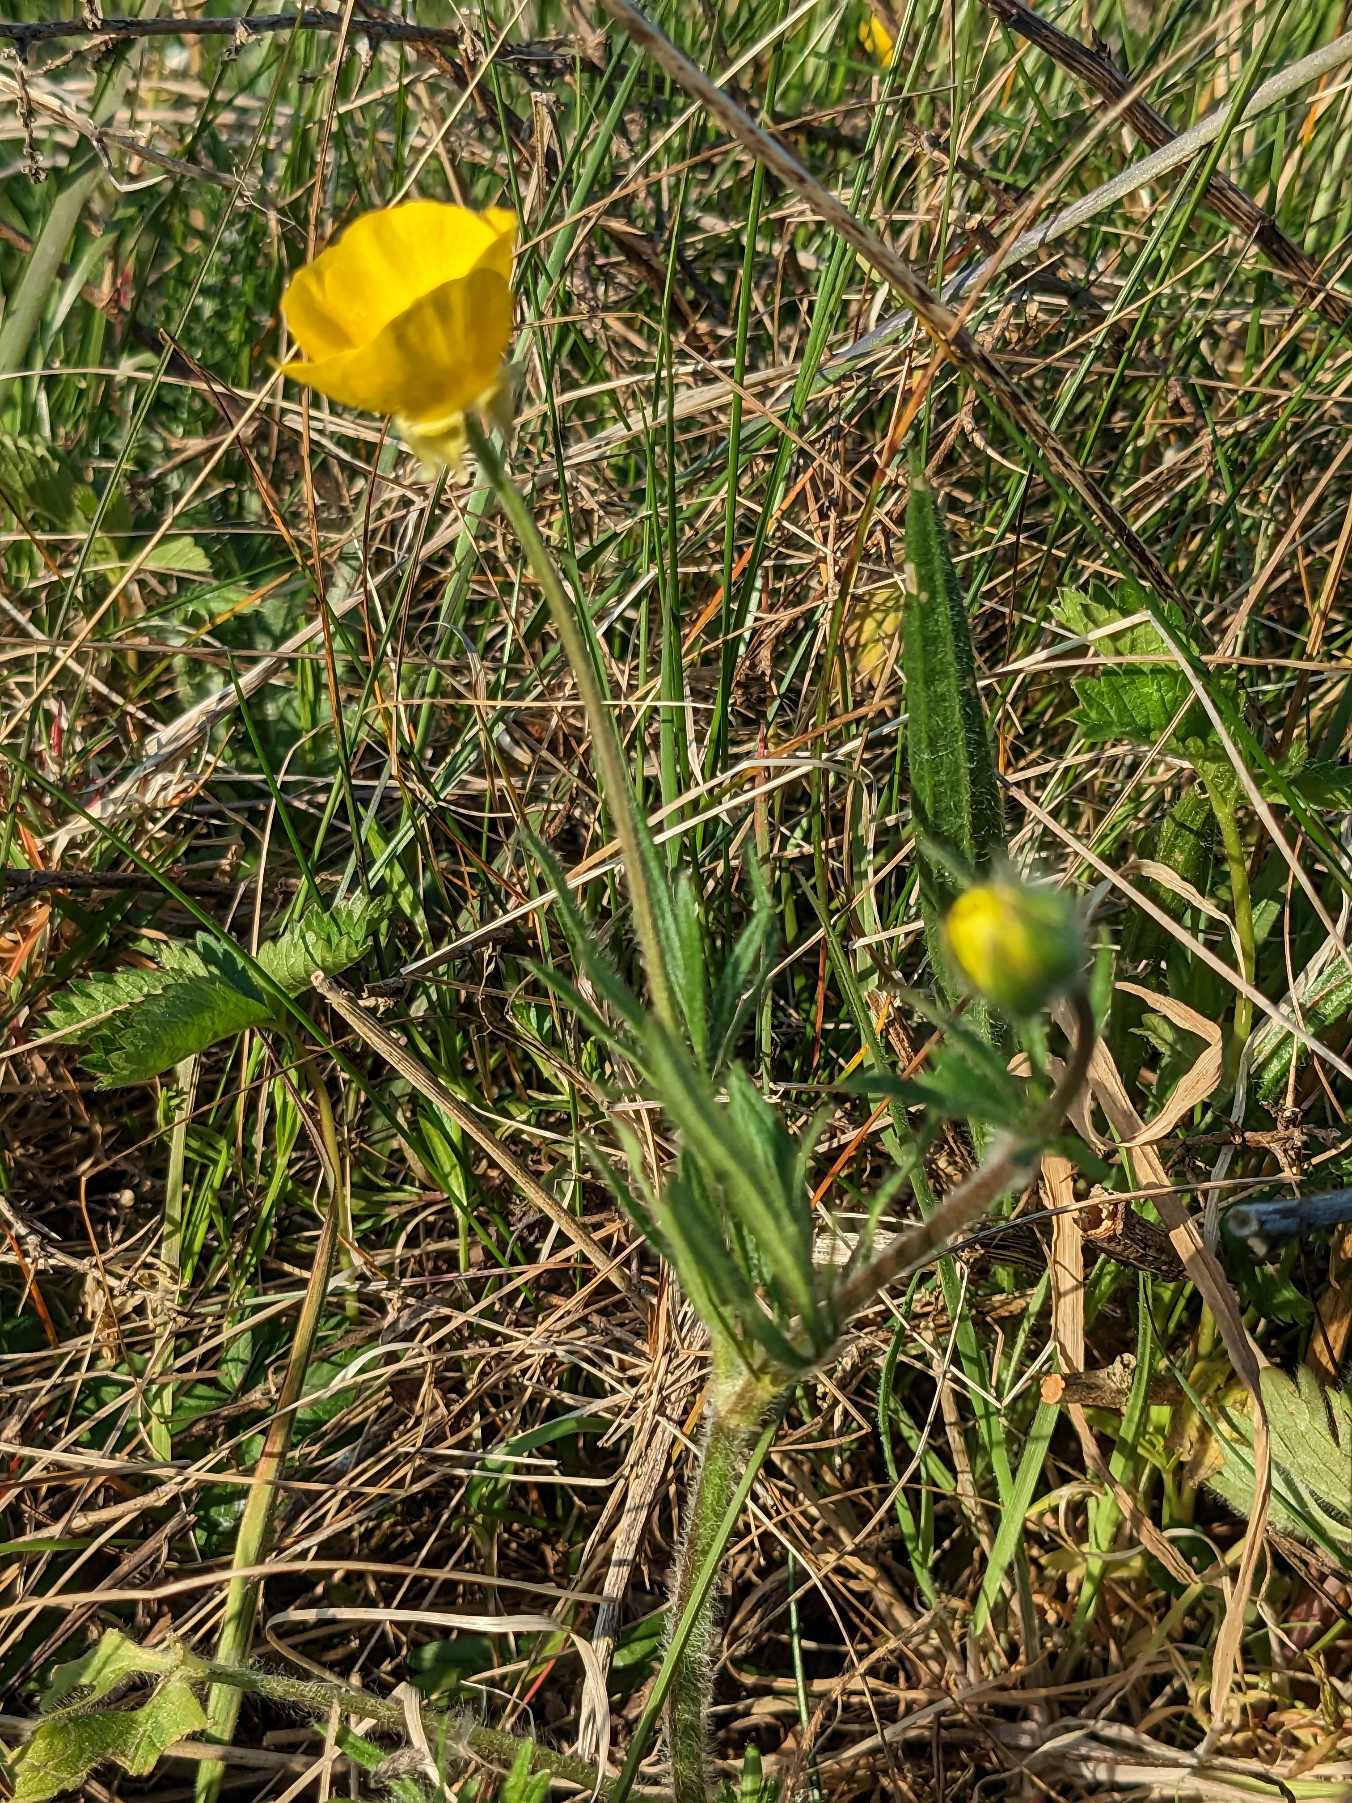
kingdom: Plantae
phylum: Tracheophyta
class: Magnoliopsida
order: Ranunculales
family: Ranunculaceae
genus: Ranunculus
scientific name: Ranunculus bulbosus
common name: Knold-ranunkel
